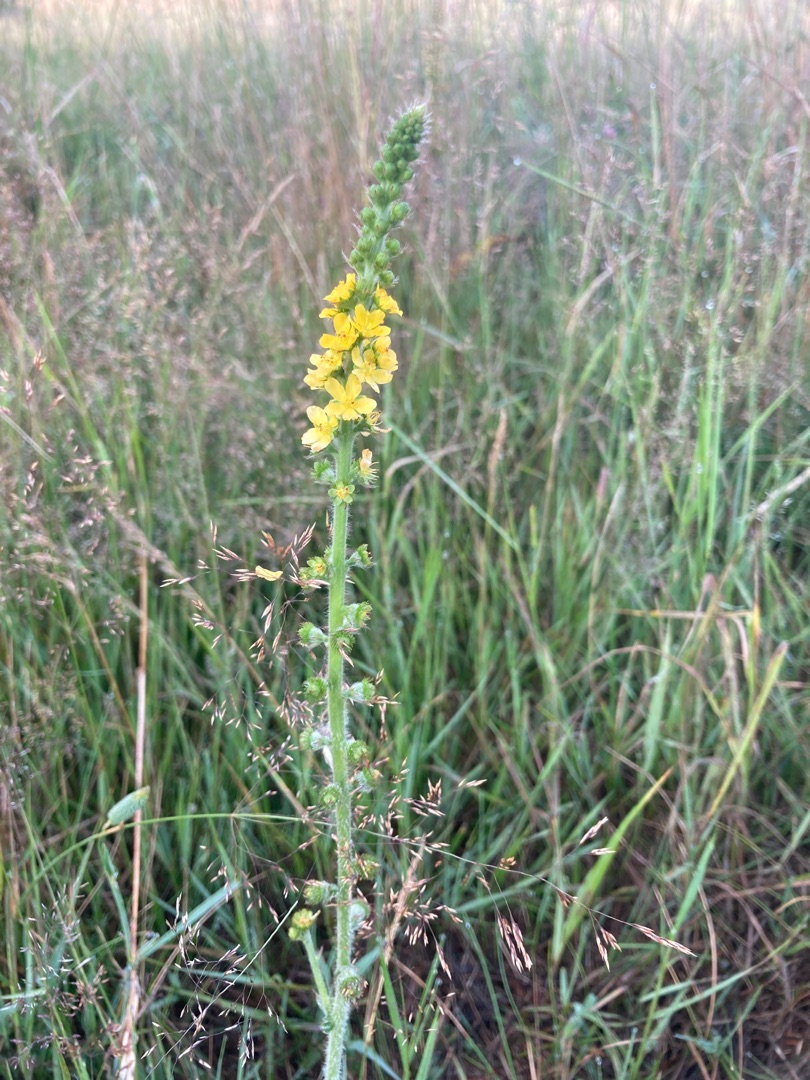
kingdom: Plantae
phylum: Tracheophyta
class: Magnoliopsida
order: Rosales
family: Rosaceae
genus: Agrimonia
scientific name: Agrimonia eupatoria
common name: Almindelig agermåne
